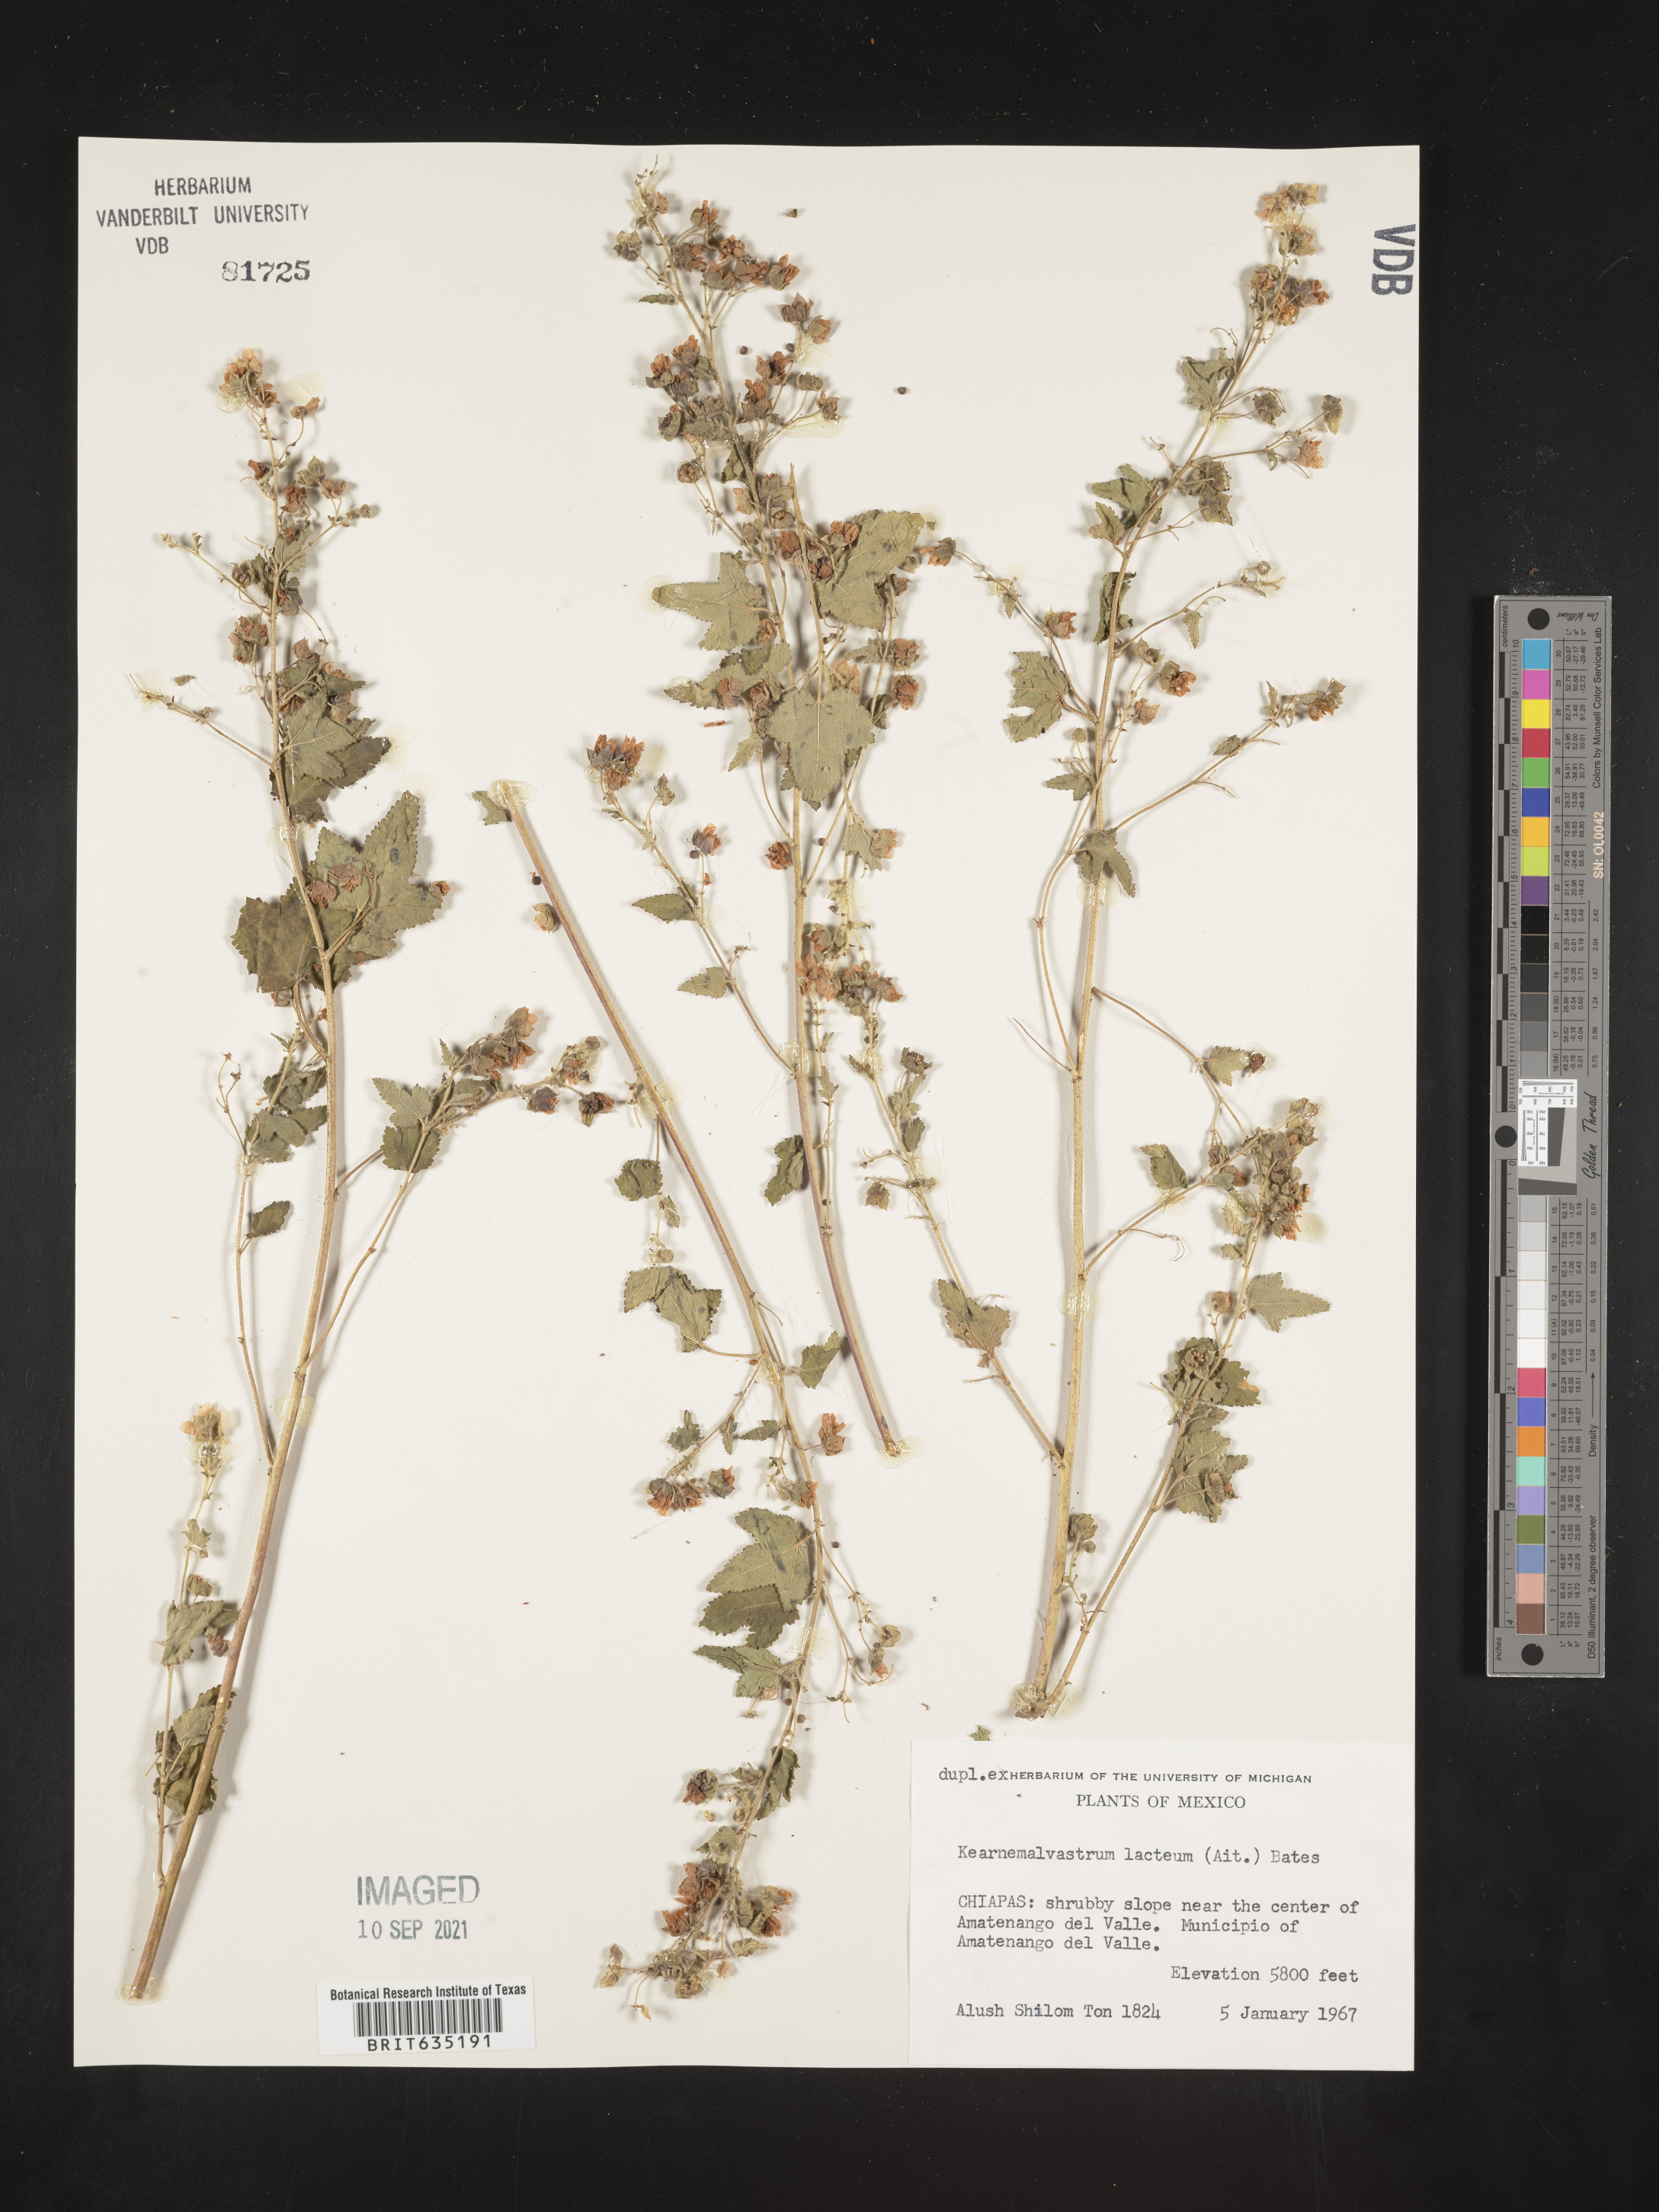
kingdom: Plantae
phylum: Tracheophyta
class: Magnoliopsida
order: Malvales
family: Malvaceae
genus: Kearnemalvastrum
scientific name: Kearnemalvastrum
